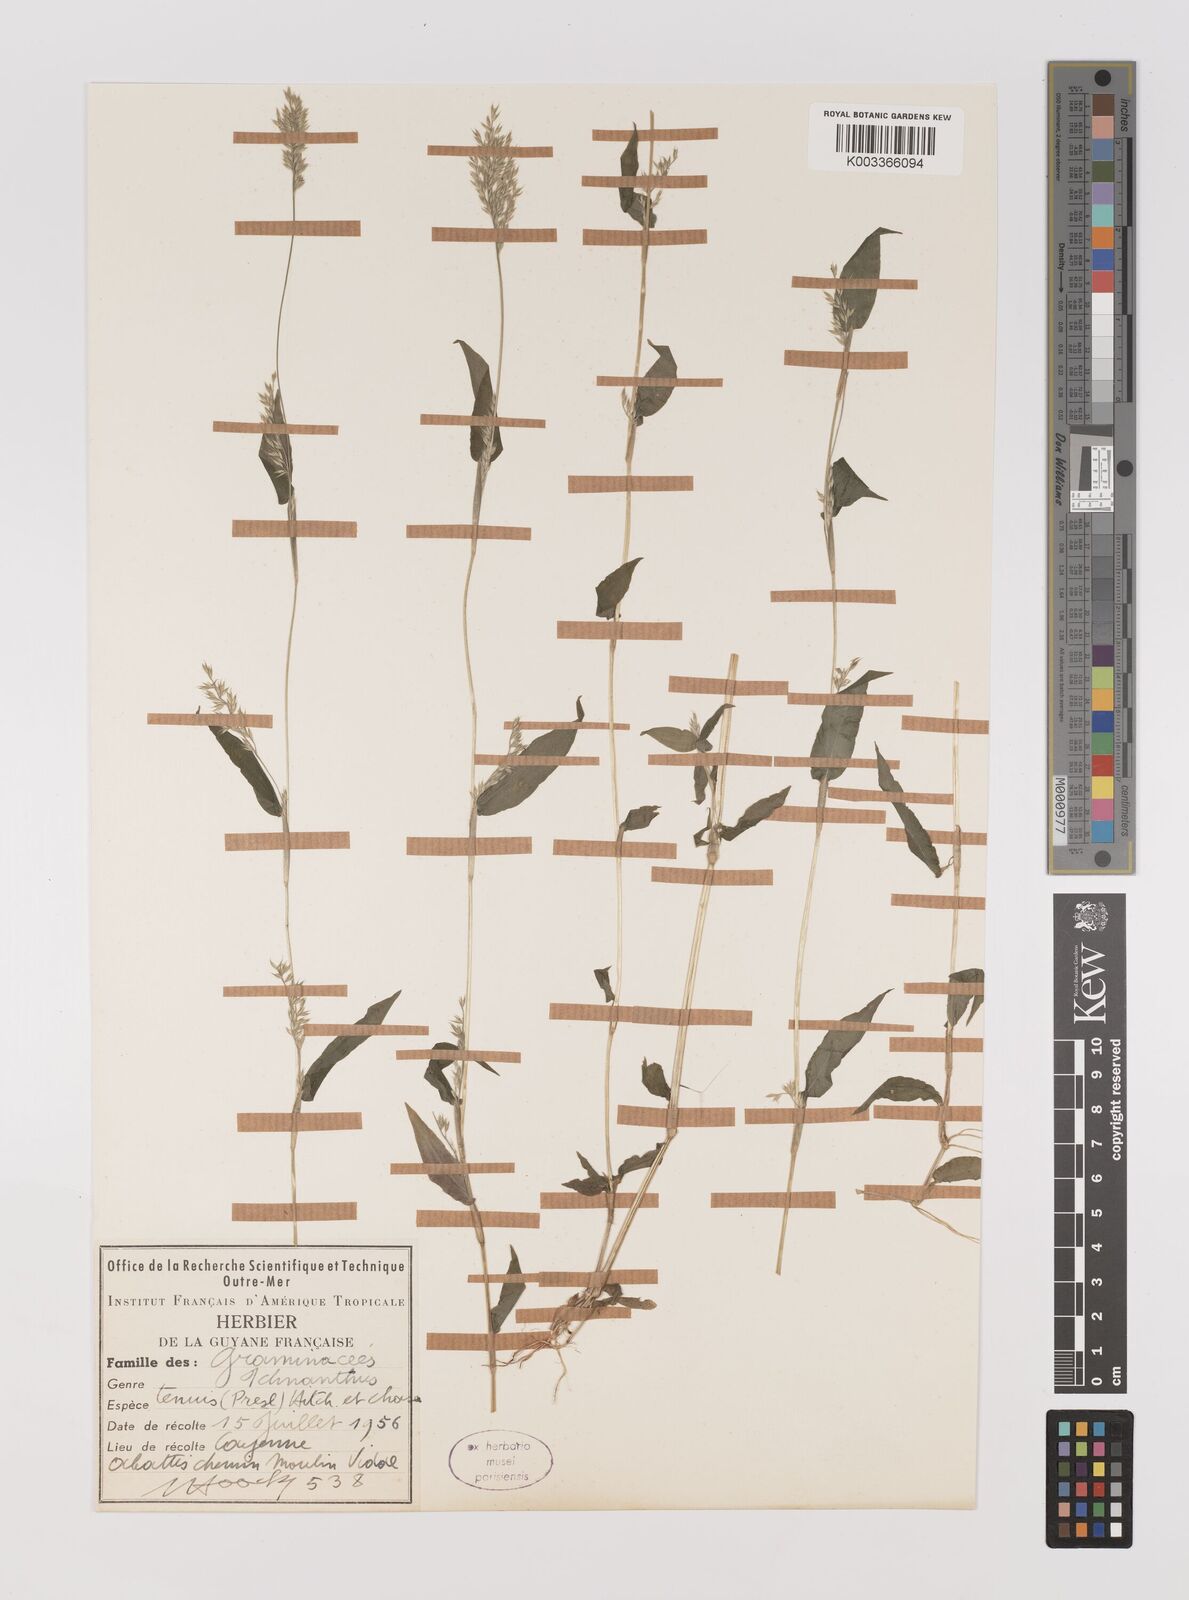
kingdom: Plantae
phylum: Tracheophyta
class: Liliopsida
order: Poales
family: Poaceae
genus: Ichnanthus
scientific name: Ichnanthus tenuis
